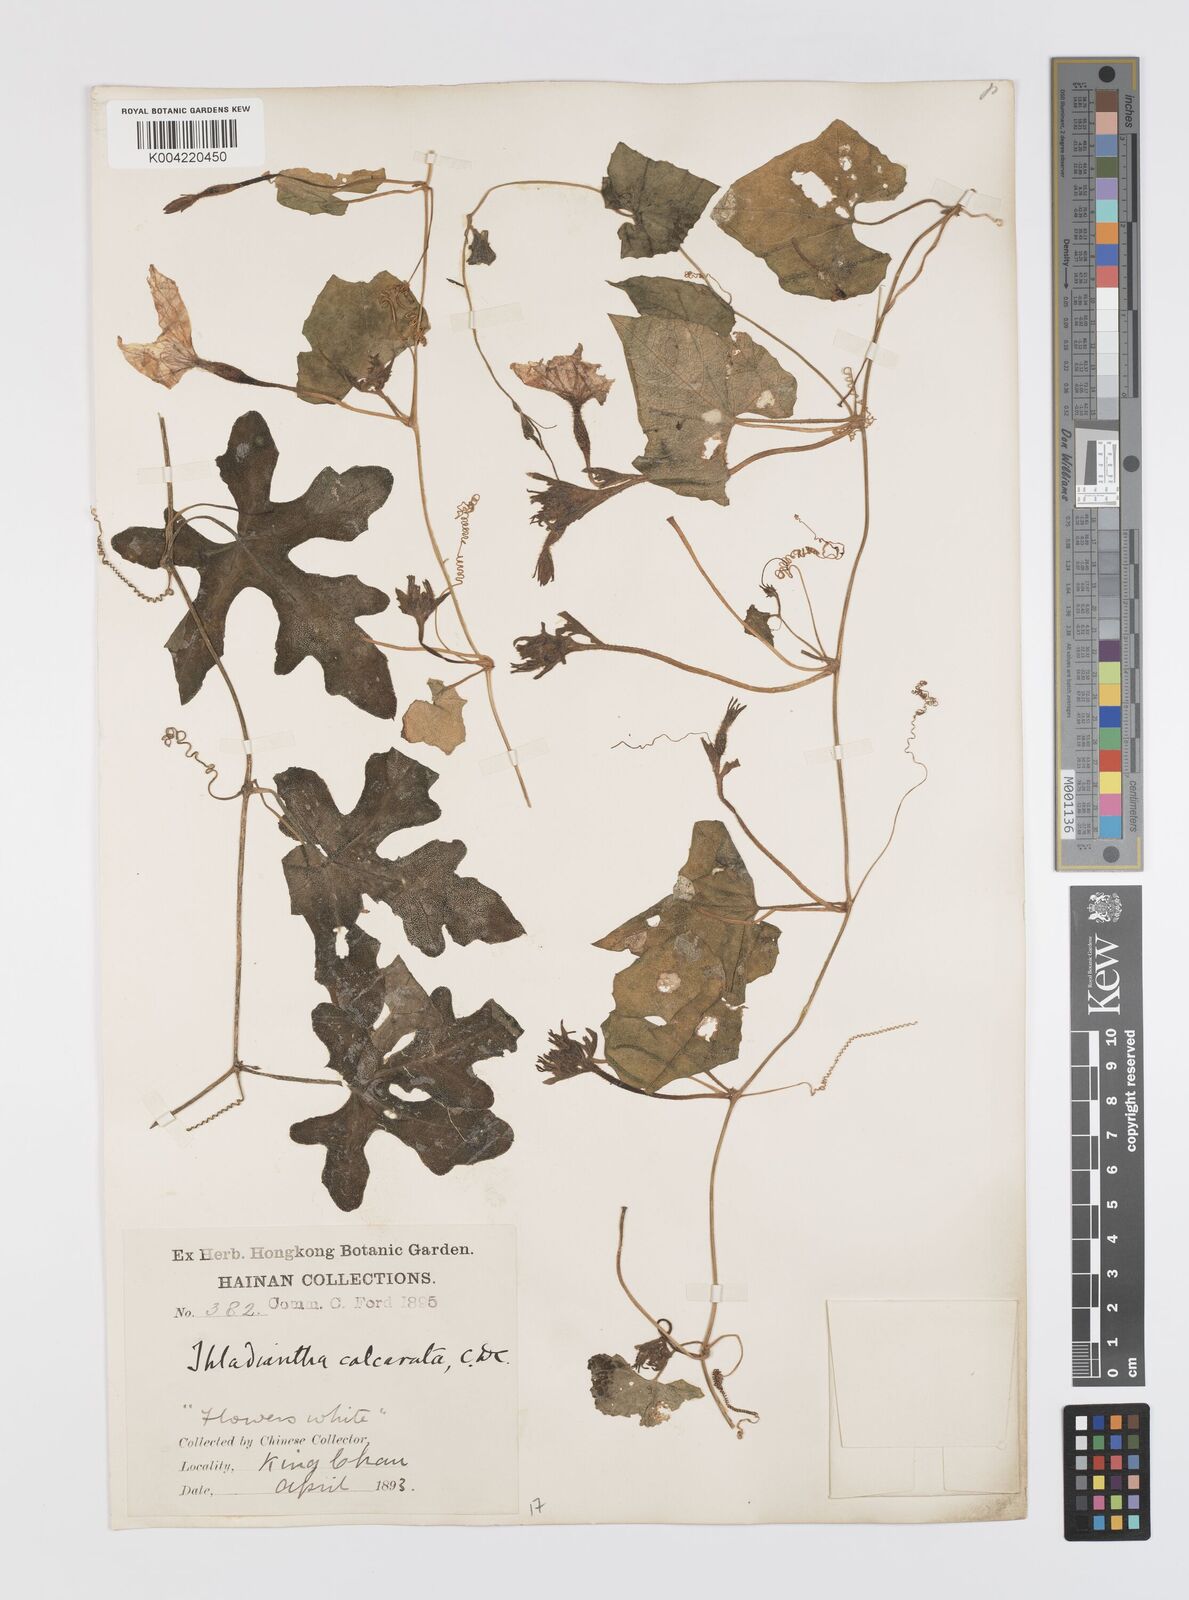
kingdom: Plantae
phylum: Tracheophyta
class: Magnoliopsida
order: Cucurbitales
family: Cucurbitaceae
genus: Thladiantha
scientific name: Thladiantha cordifolia
